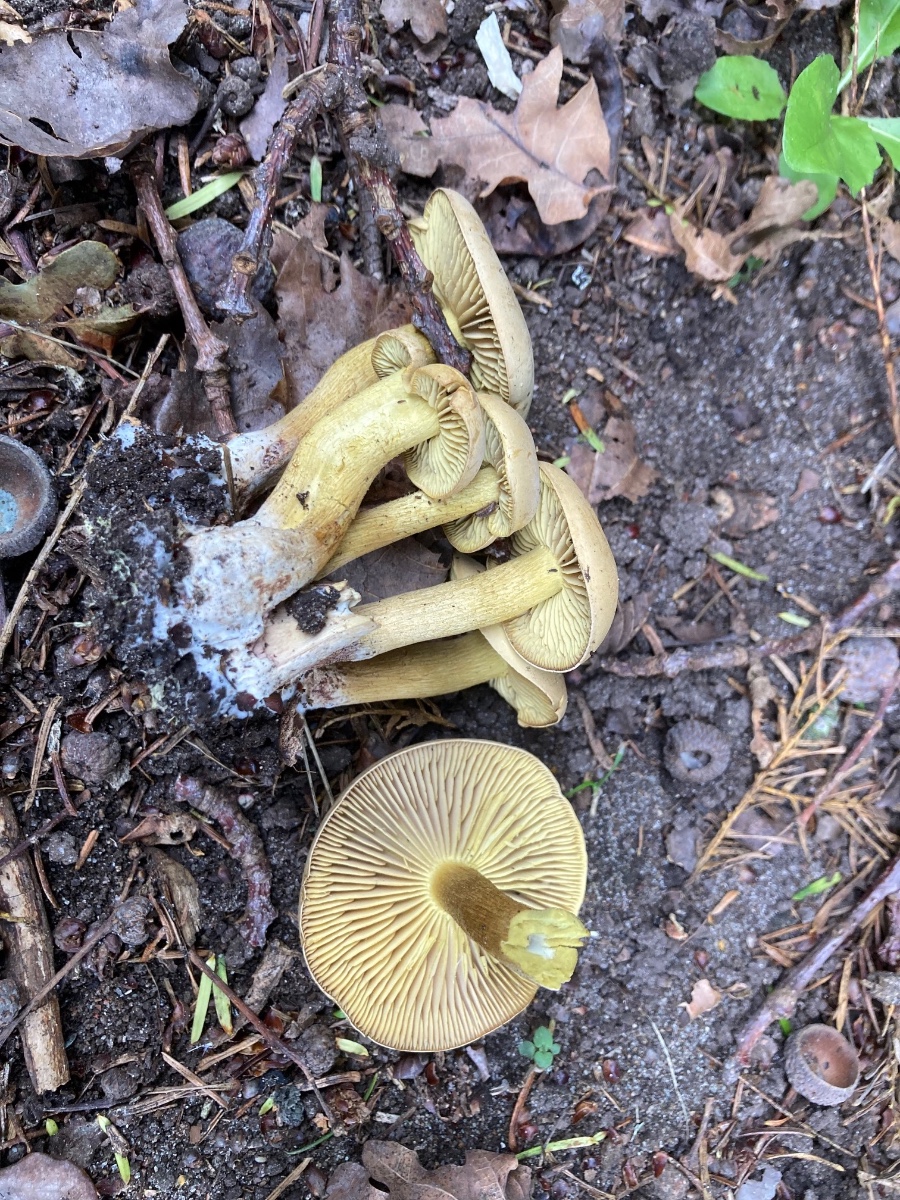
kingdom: Fungi
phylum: Basidiomycota
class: Agaricomycetes
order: Agaricales
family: Tricholomataceae
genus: Tricholoma
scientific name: Tricholoma sulphureum
